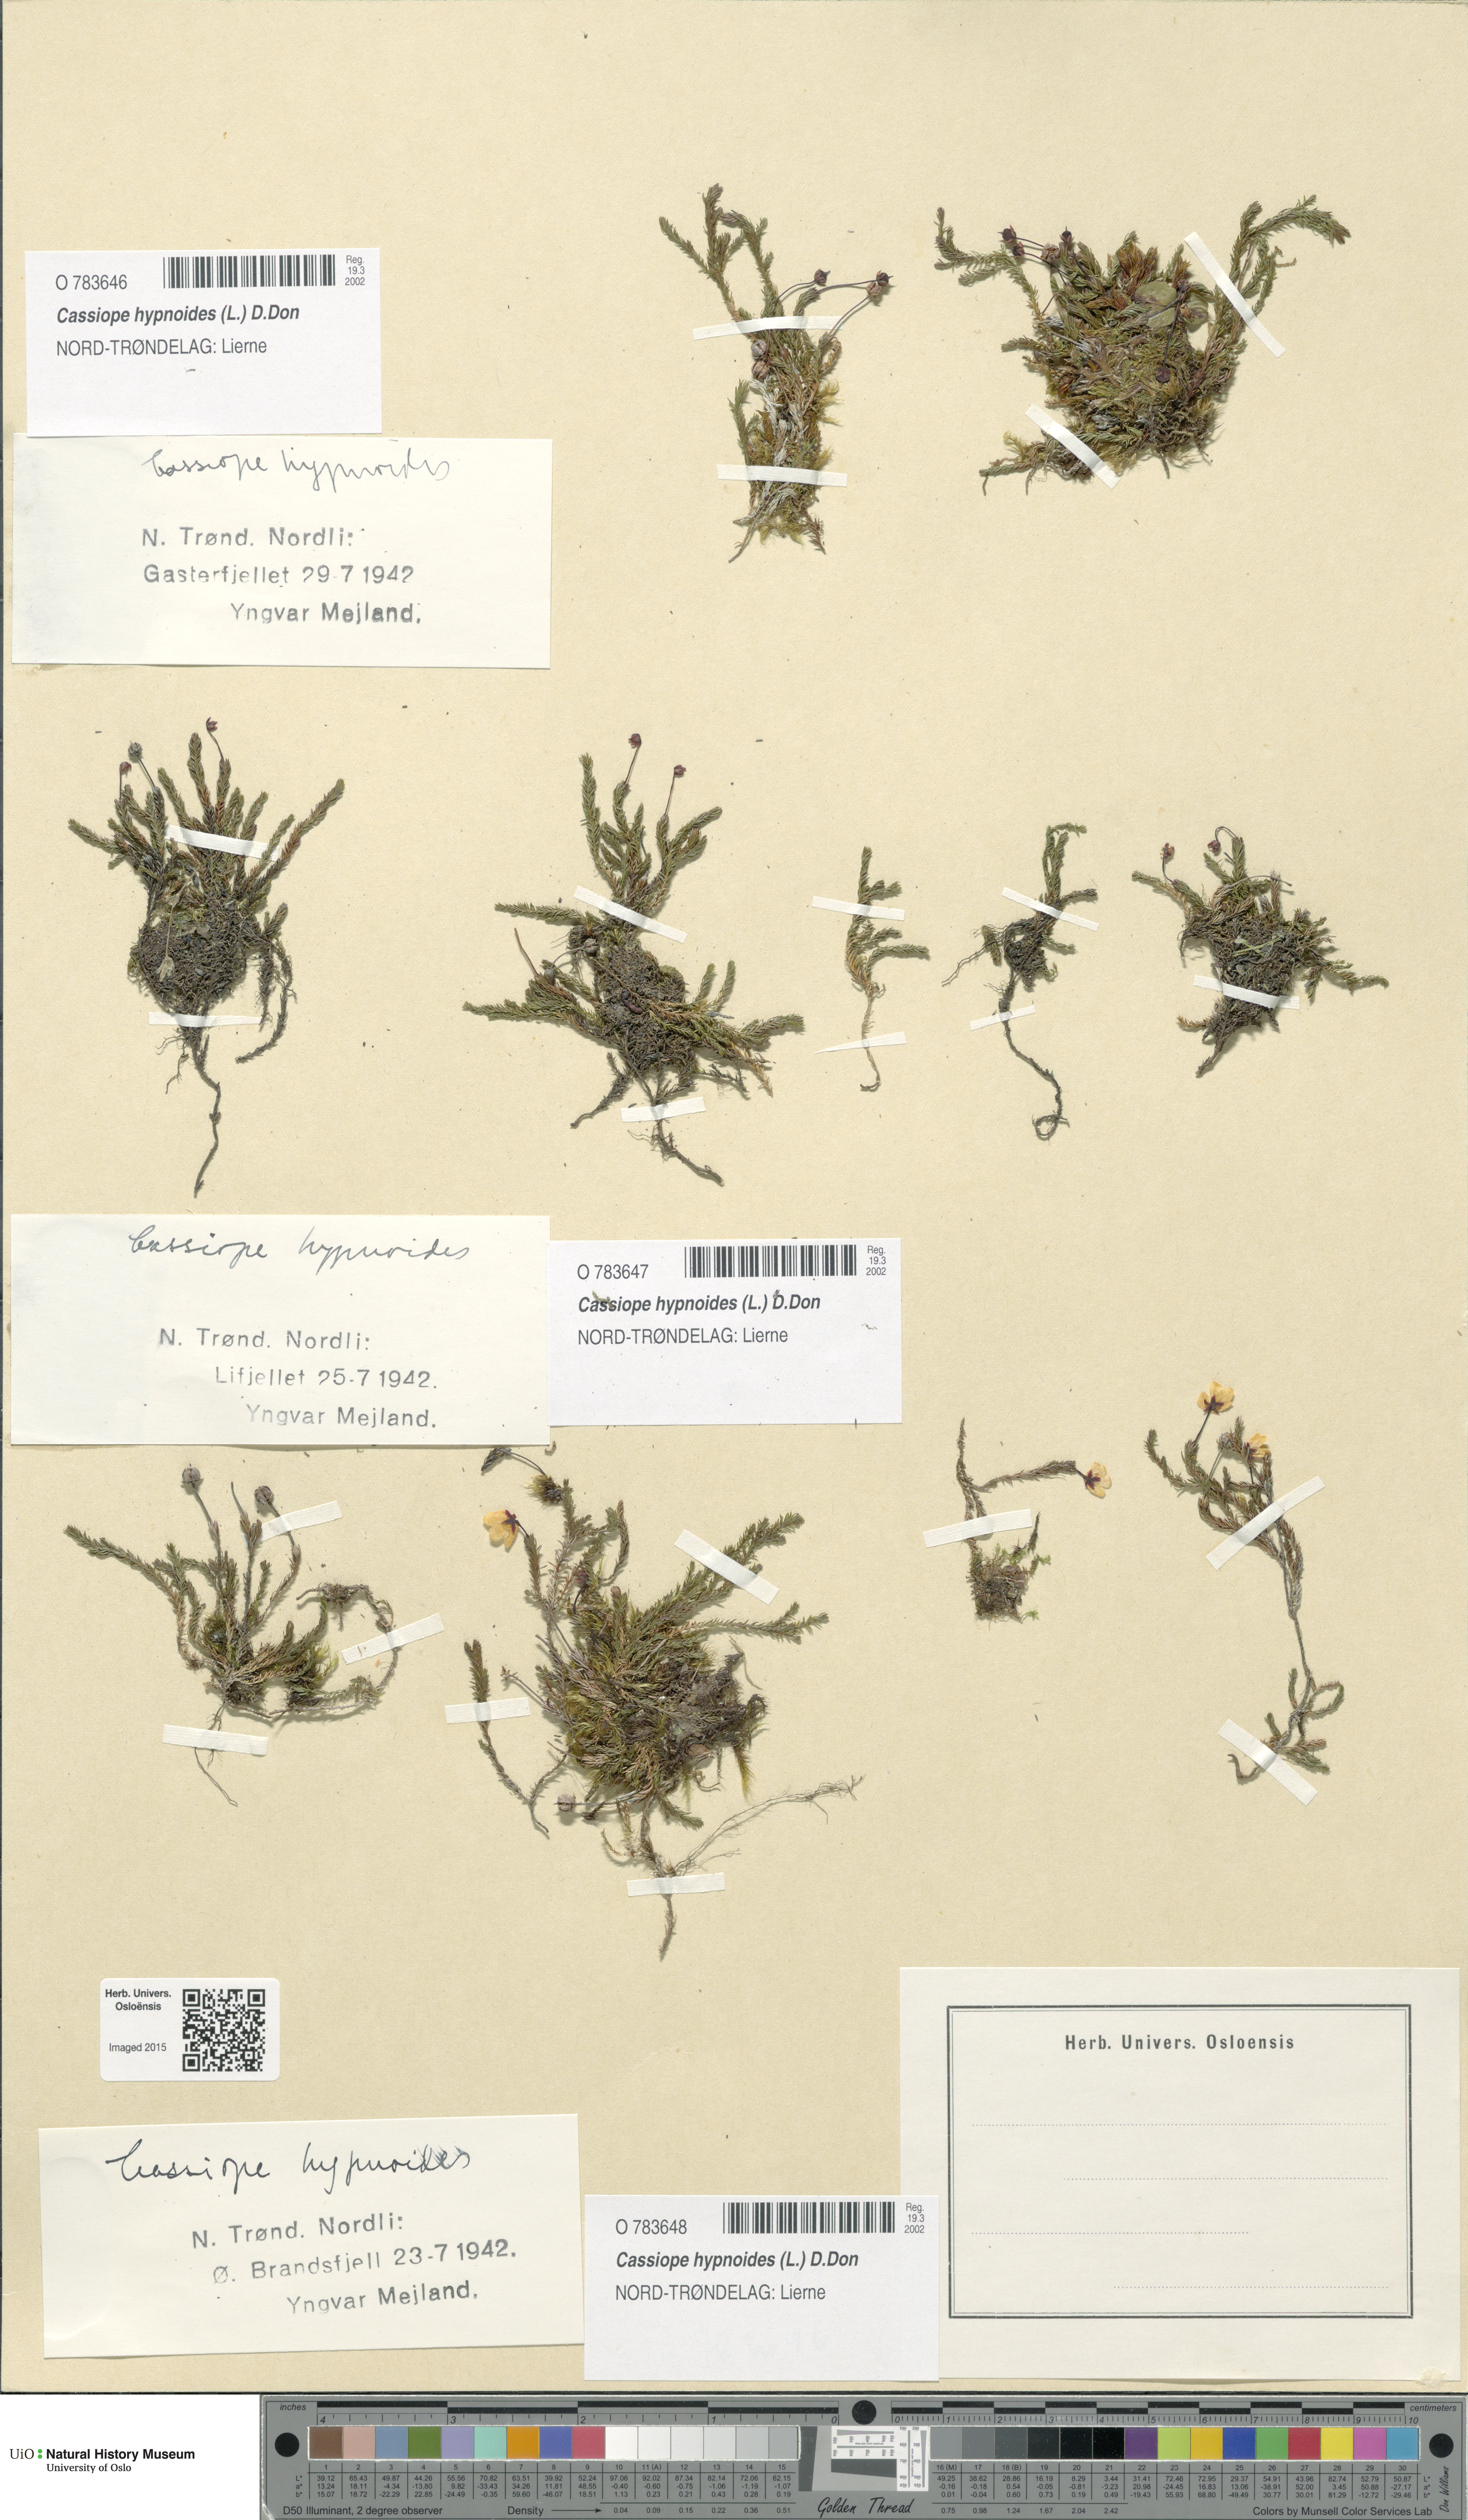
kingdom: Plantae
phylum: Tracheophyta
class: Magnoliopsida
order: Ericales
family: Ericaceae
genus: Harrimanella
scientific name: Harrimanella hypnoides
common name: Moss bell heather
